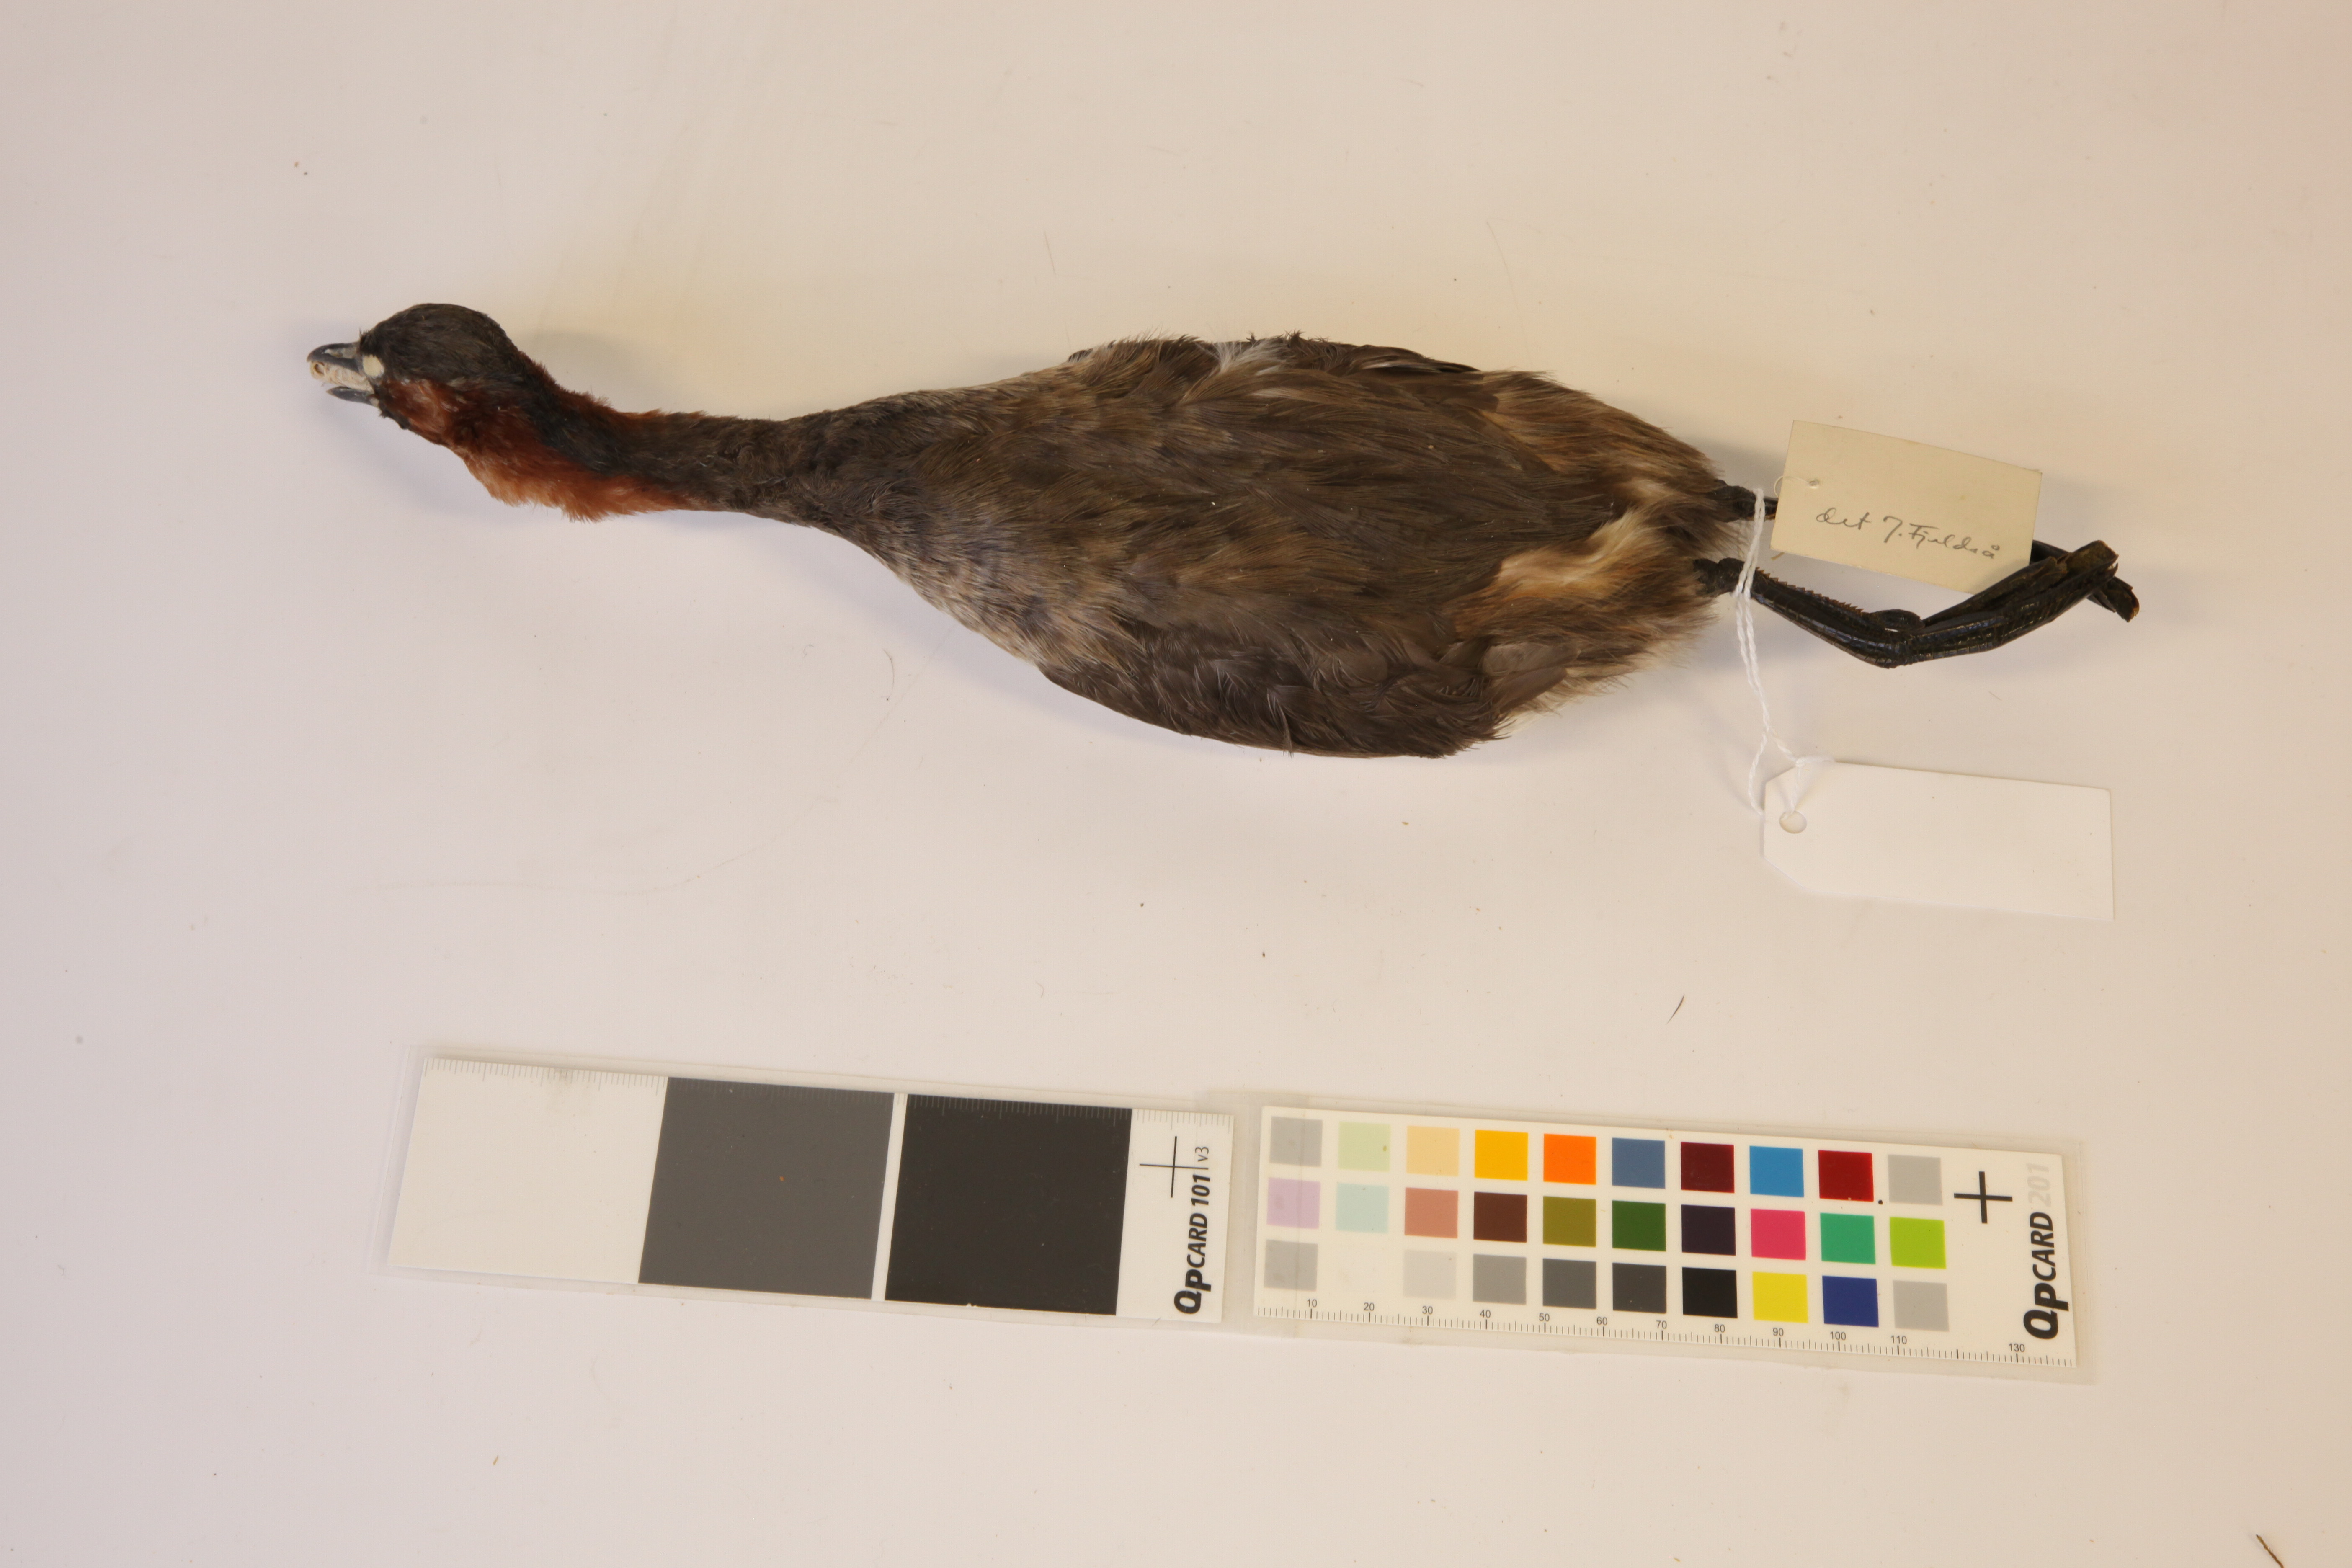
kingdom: Animalia
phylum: Chordata
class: Aves
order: Podicipediformes
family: Podicipedidae
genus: Tachybaptus
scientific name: Tachybaptus ruficollis
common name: Little grebe
